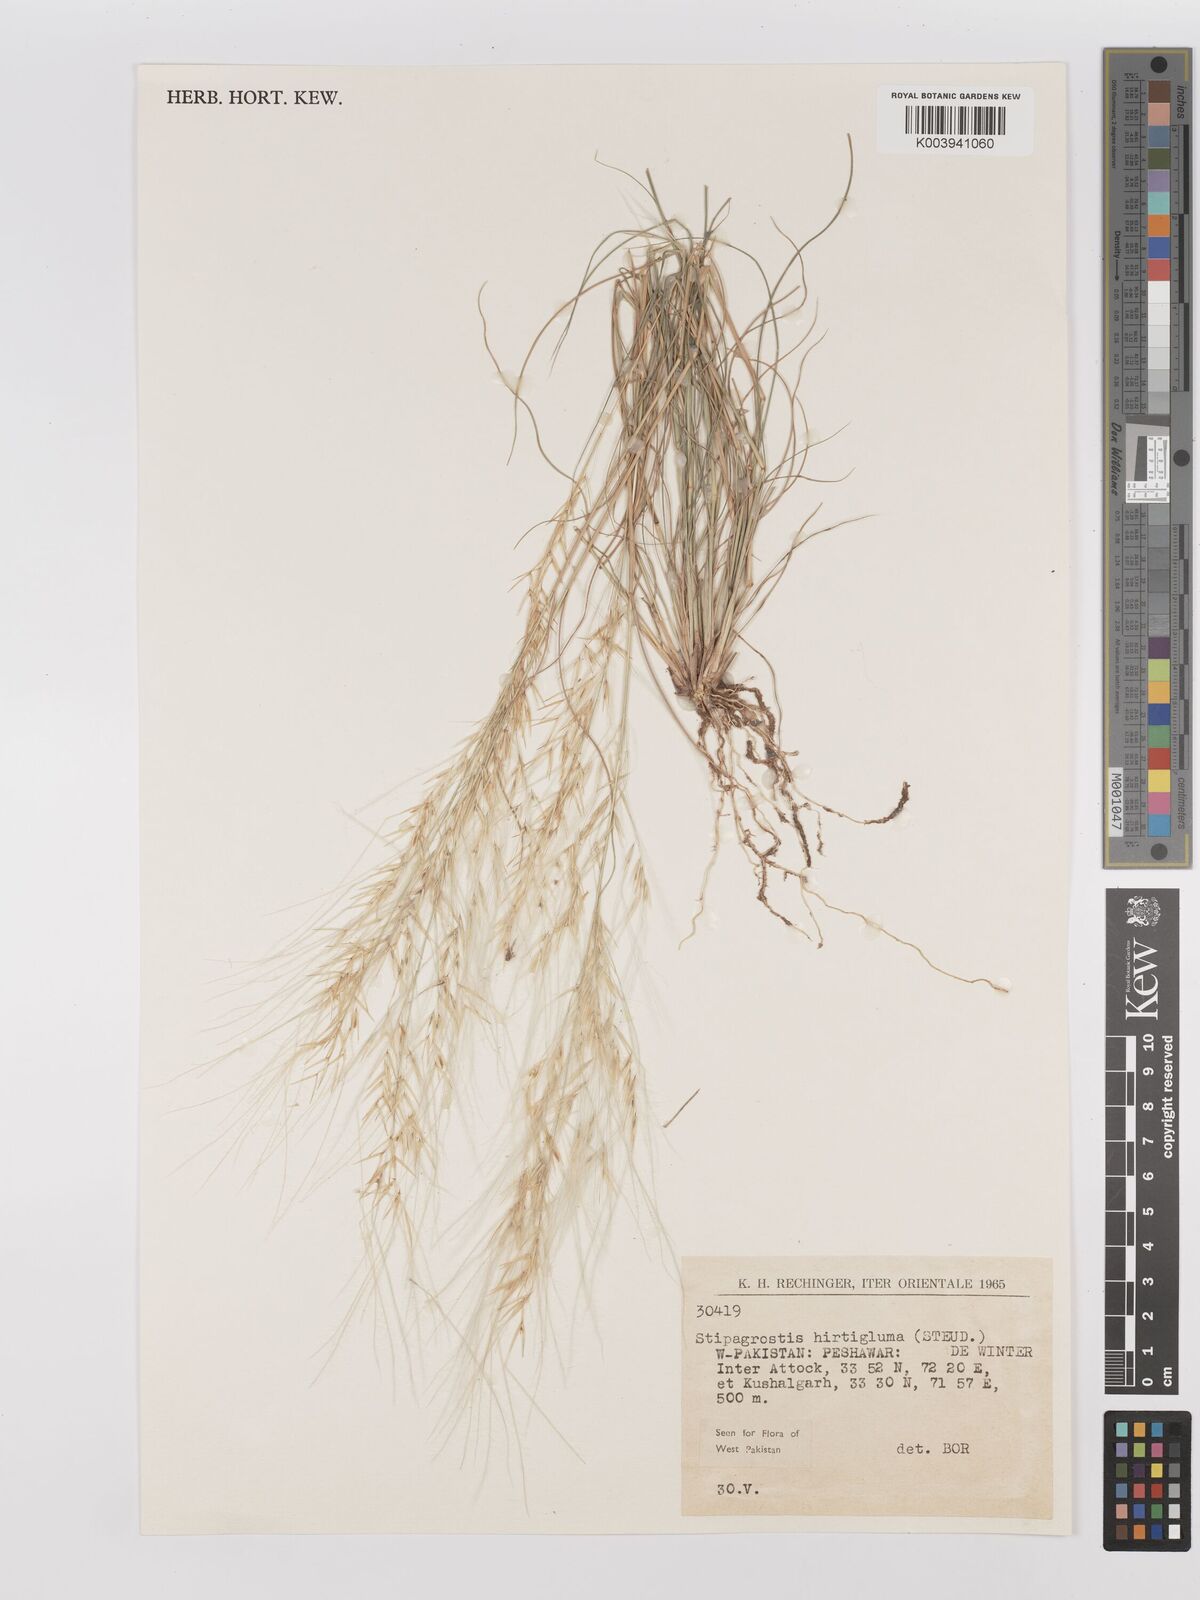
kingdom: Plantae
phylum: Tracheophyta
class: Liliopsida
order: Poales
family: Poaceae
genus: Stipagrostis
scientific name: Stipagrostis hirtigluma
